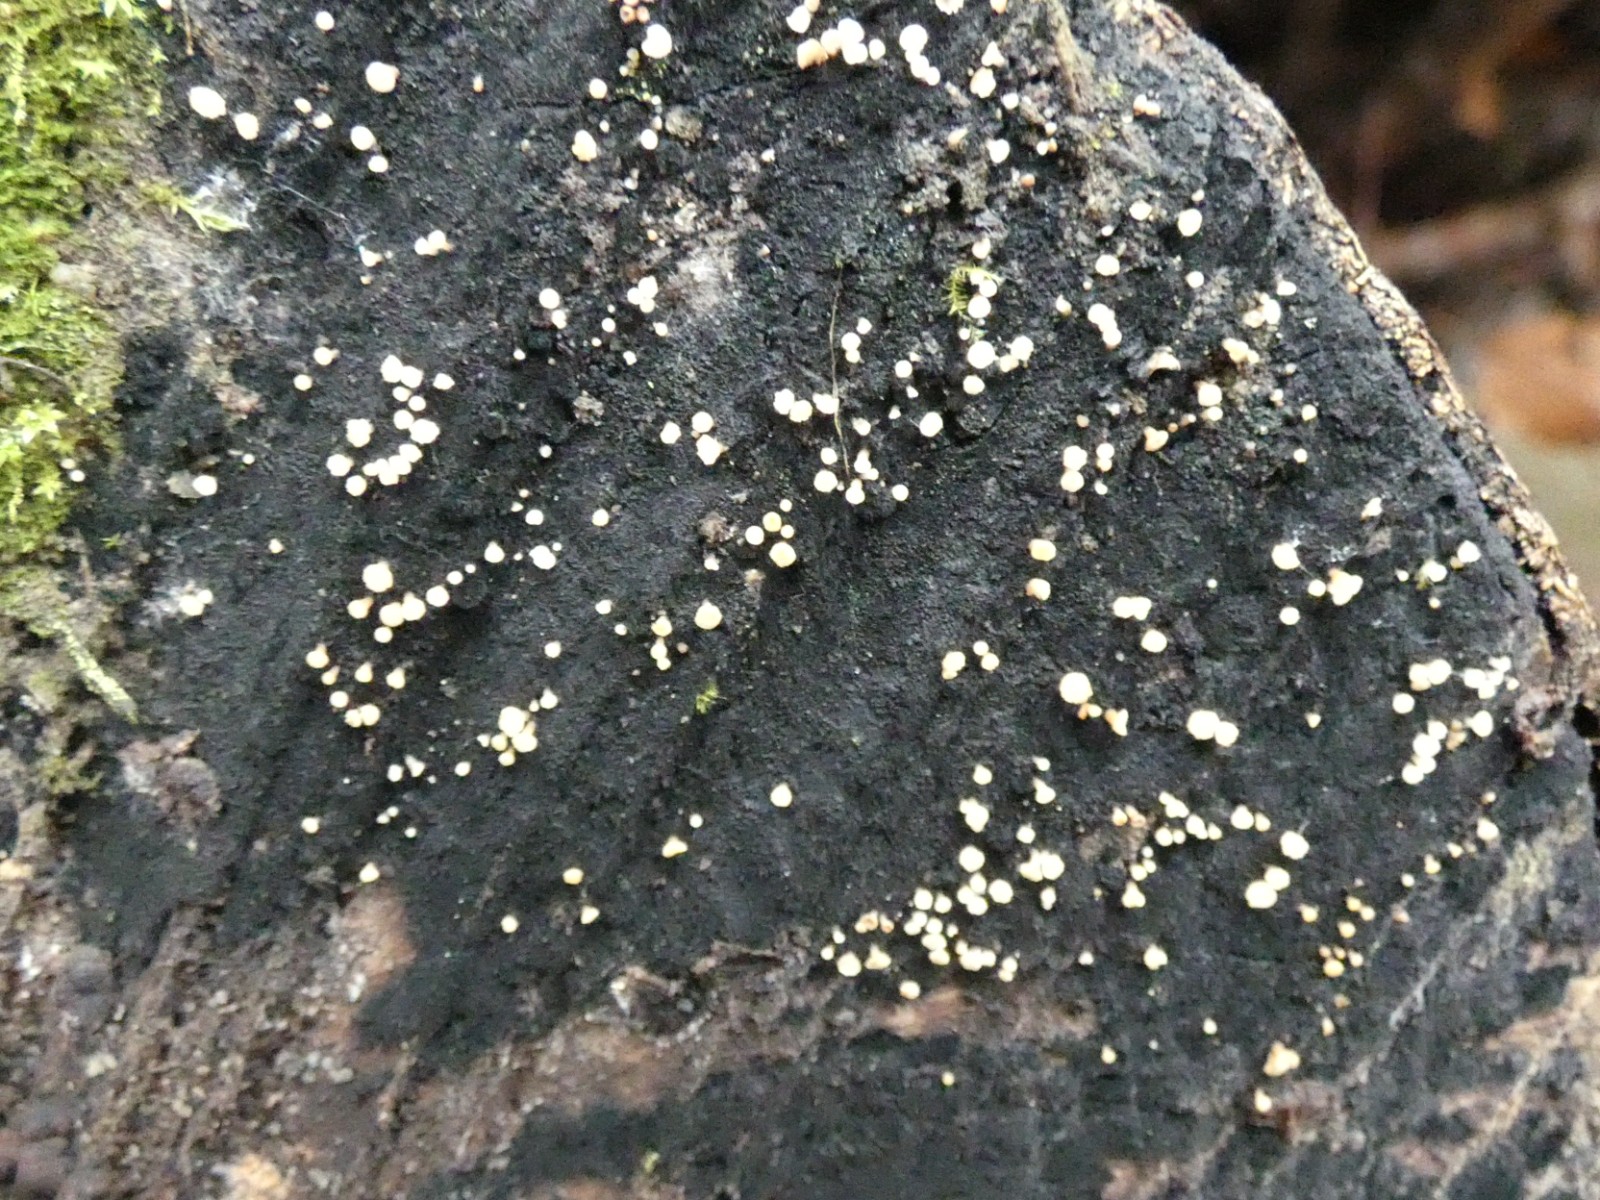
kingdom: Fungi
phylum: Ascomycota
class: Leotiomycetes
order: Helotiales
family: Helotiaceae
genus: Bispora
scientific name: Bispora pallescens
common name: måtte-snitskive
